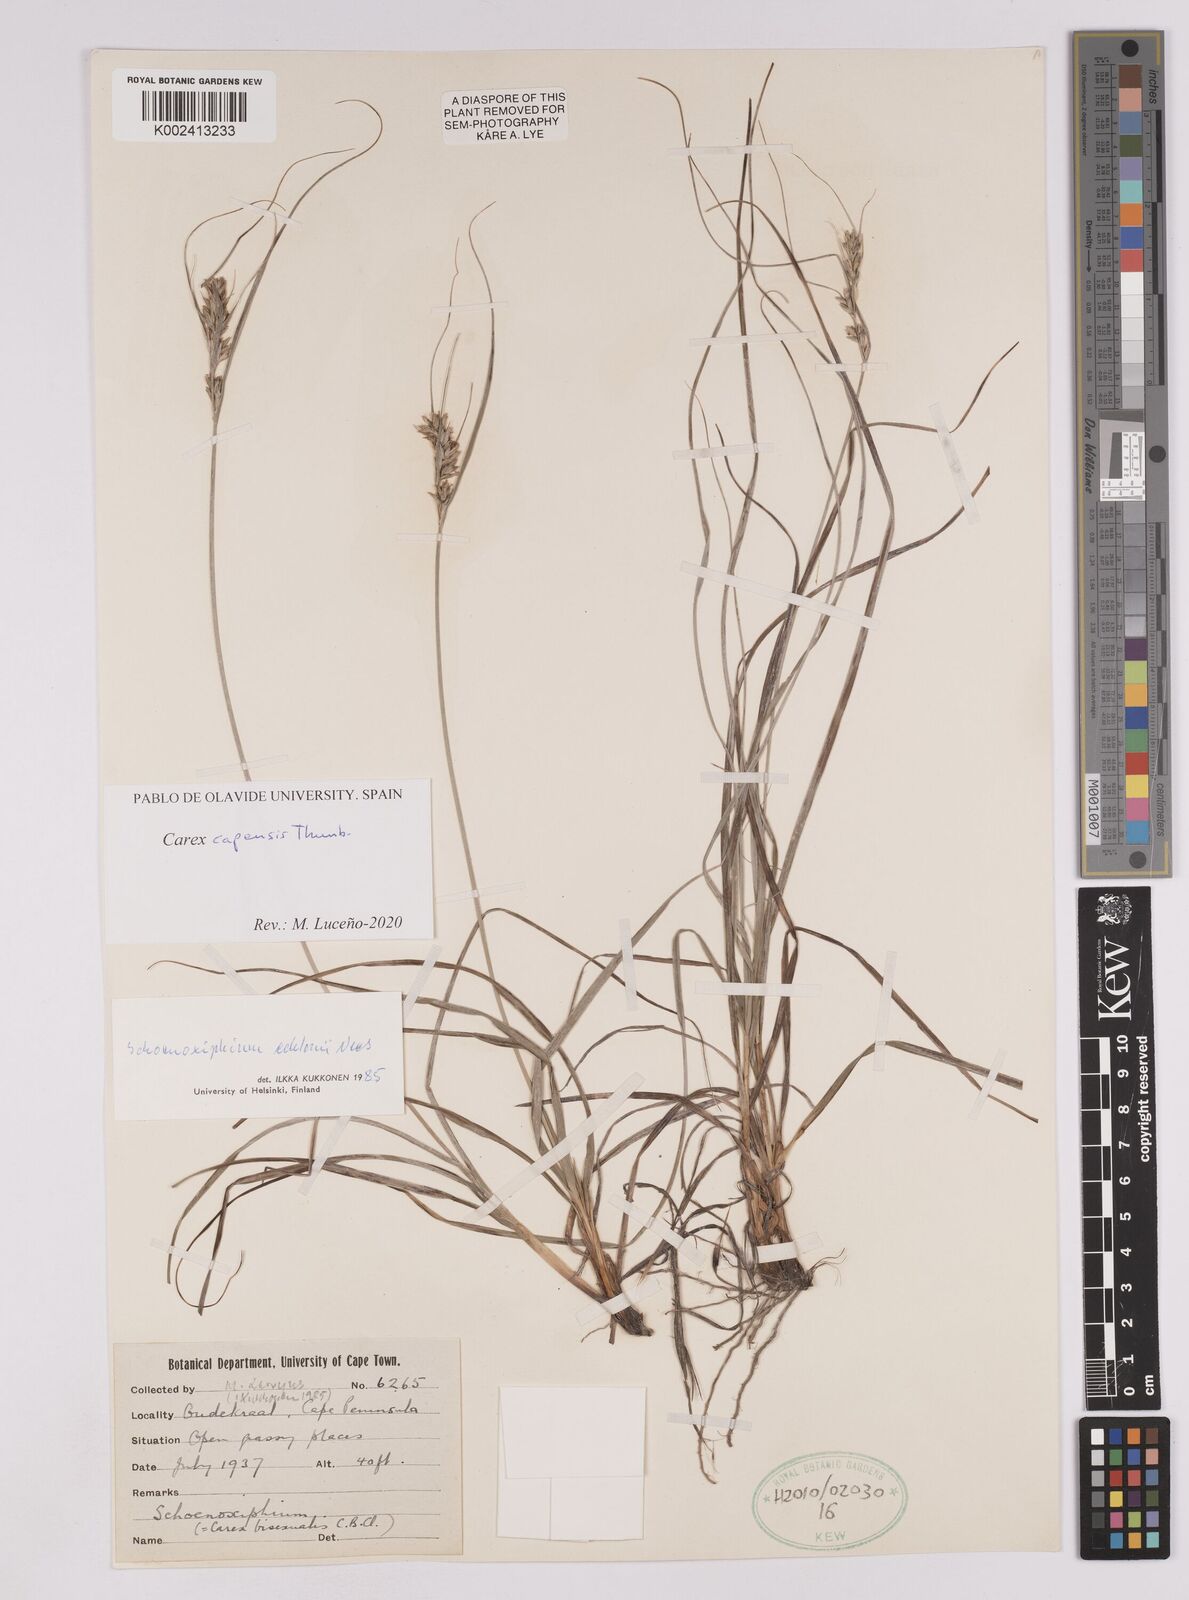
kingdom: Plantae
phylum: Tracheophyta
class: Liliopsida
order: Poales
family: Cyperaceae
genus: Carex
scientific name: Carex capensis
